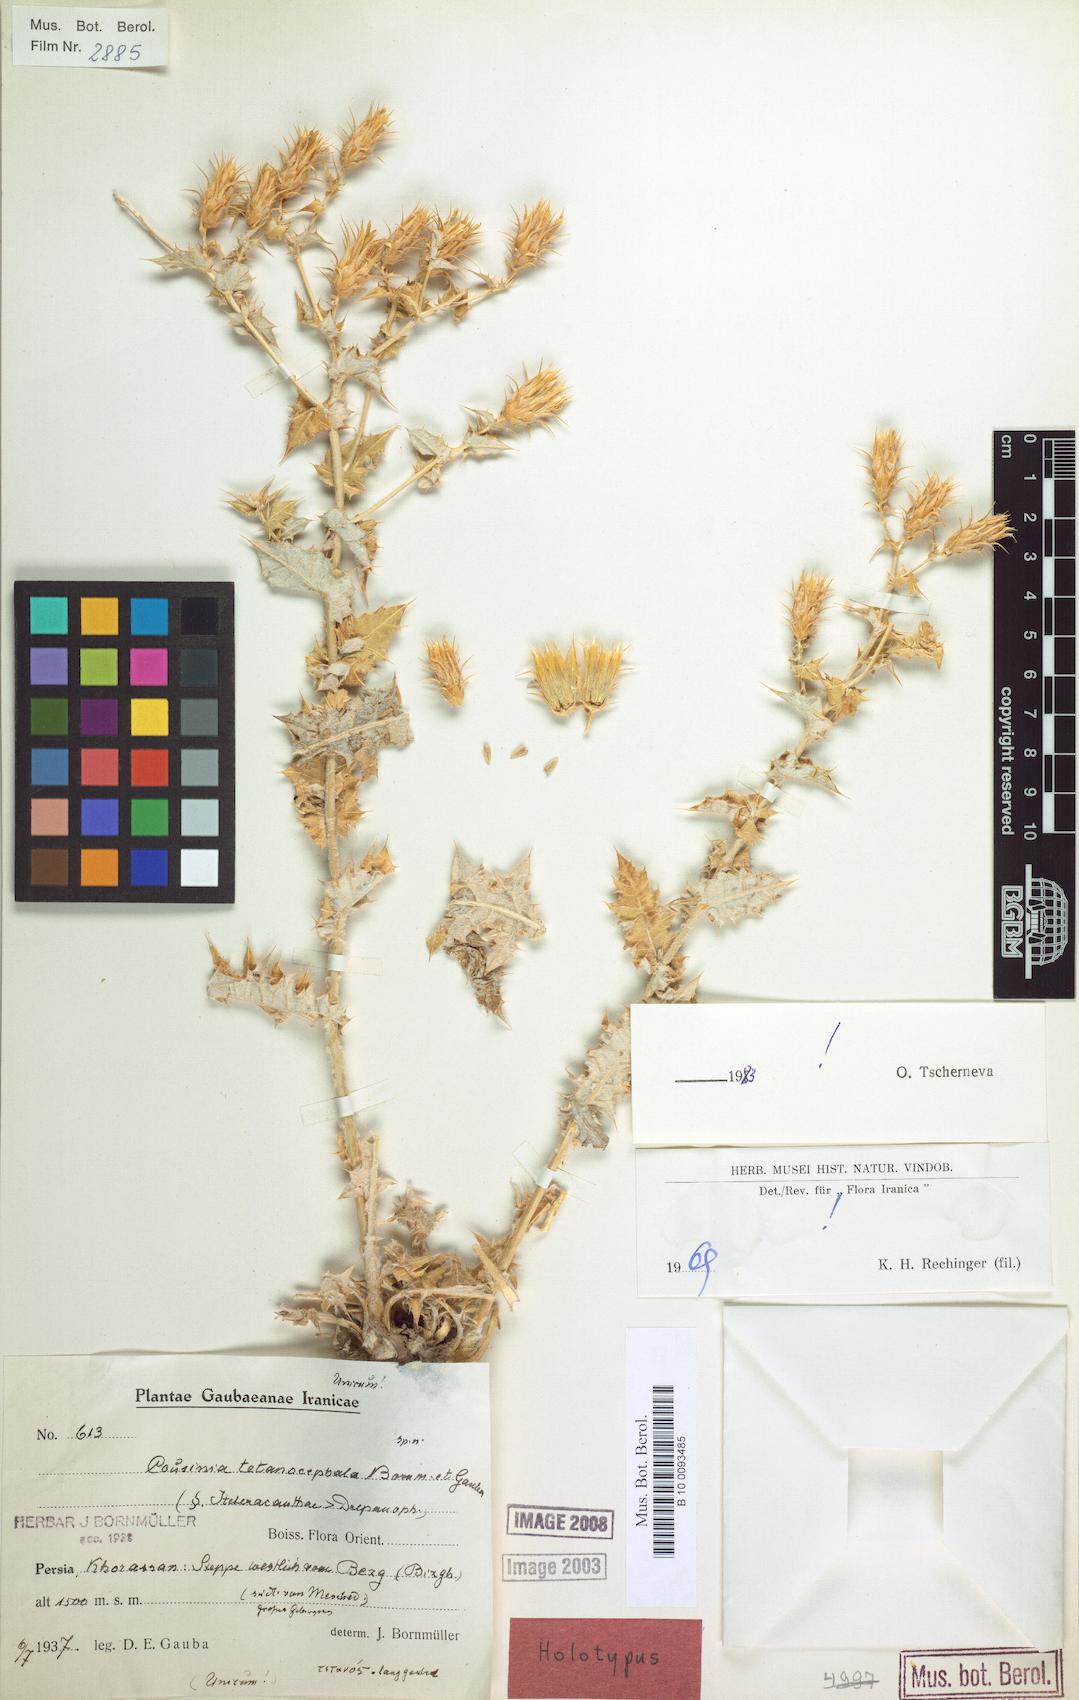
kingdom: Plantae
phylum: Tracheophyta
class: Magnoliopsida
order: Asterales
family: Asteraceae
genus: Cousinia
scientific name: Cousinia tetanocephala
